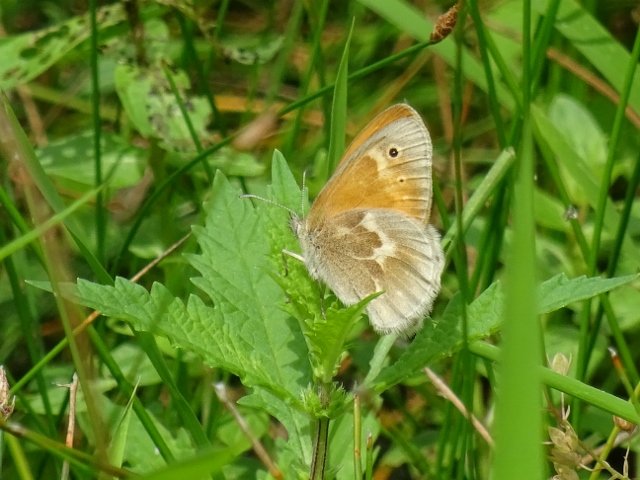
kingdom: Animalia
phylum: Arthropoda
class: Insecta
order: Lepidoptera
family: Nymphalidae
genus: Coenonympha
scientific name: Coenonympha tullia
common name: Large Heath
